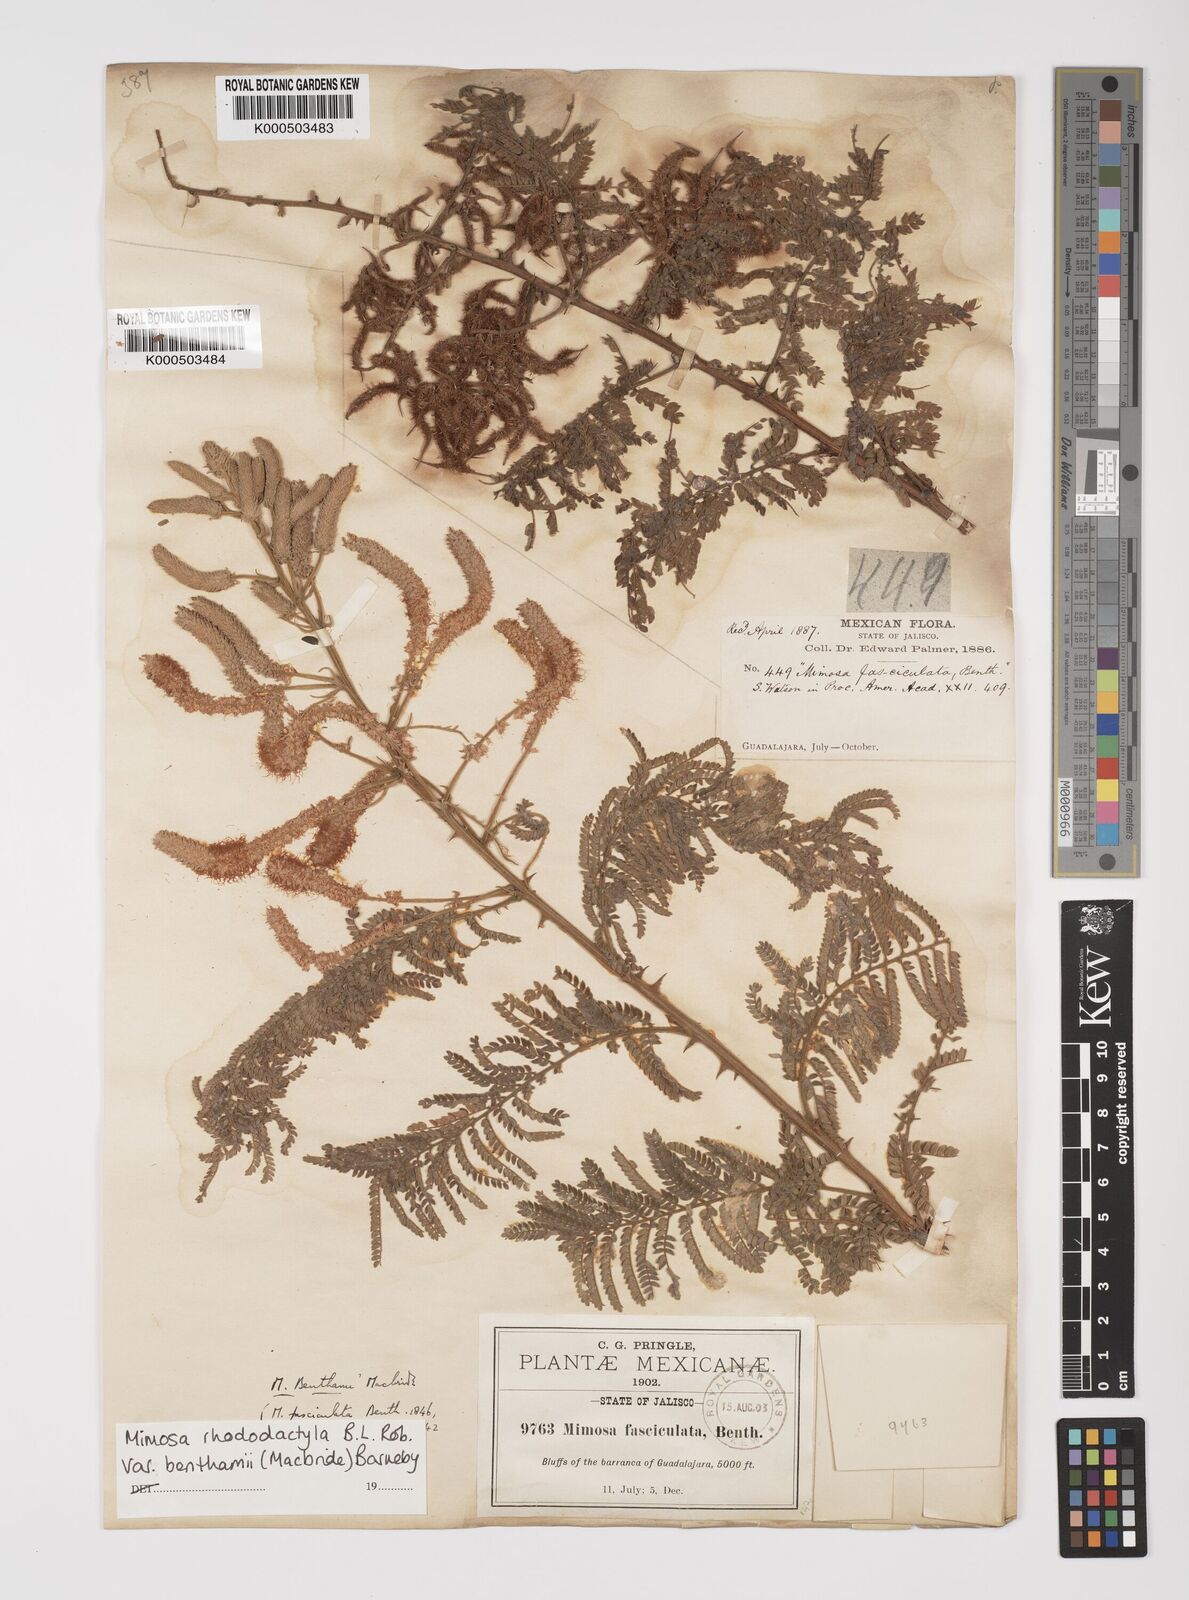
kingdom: Plantae
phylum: Tracheophyta
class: Magnoliopsida
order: Fabales
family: Fabaceae
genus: Mimosa
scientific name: Mimosa benthamii
